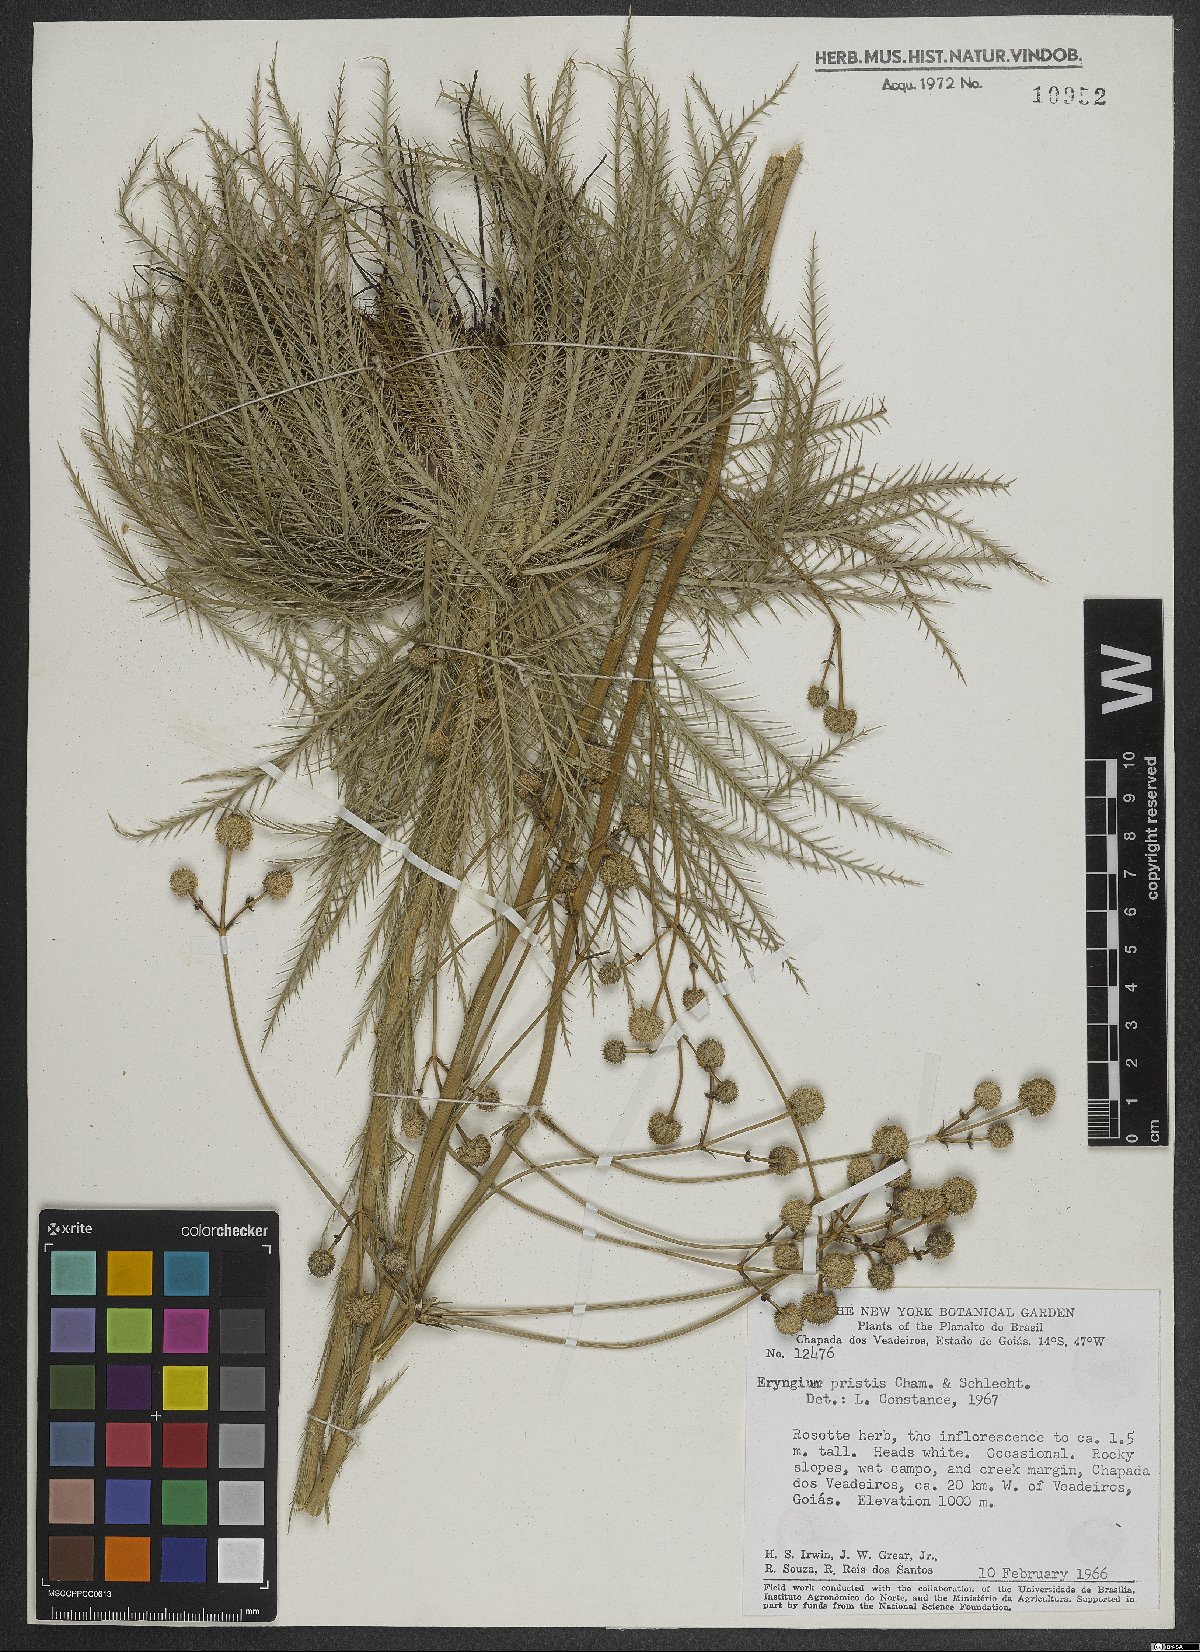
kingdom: Plantae
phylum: Tracheophyta
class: Magnoliopsida
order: Apiales
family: Apiaceae
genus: Eryngium
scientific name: Eryngium pristis
